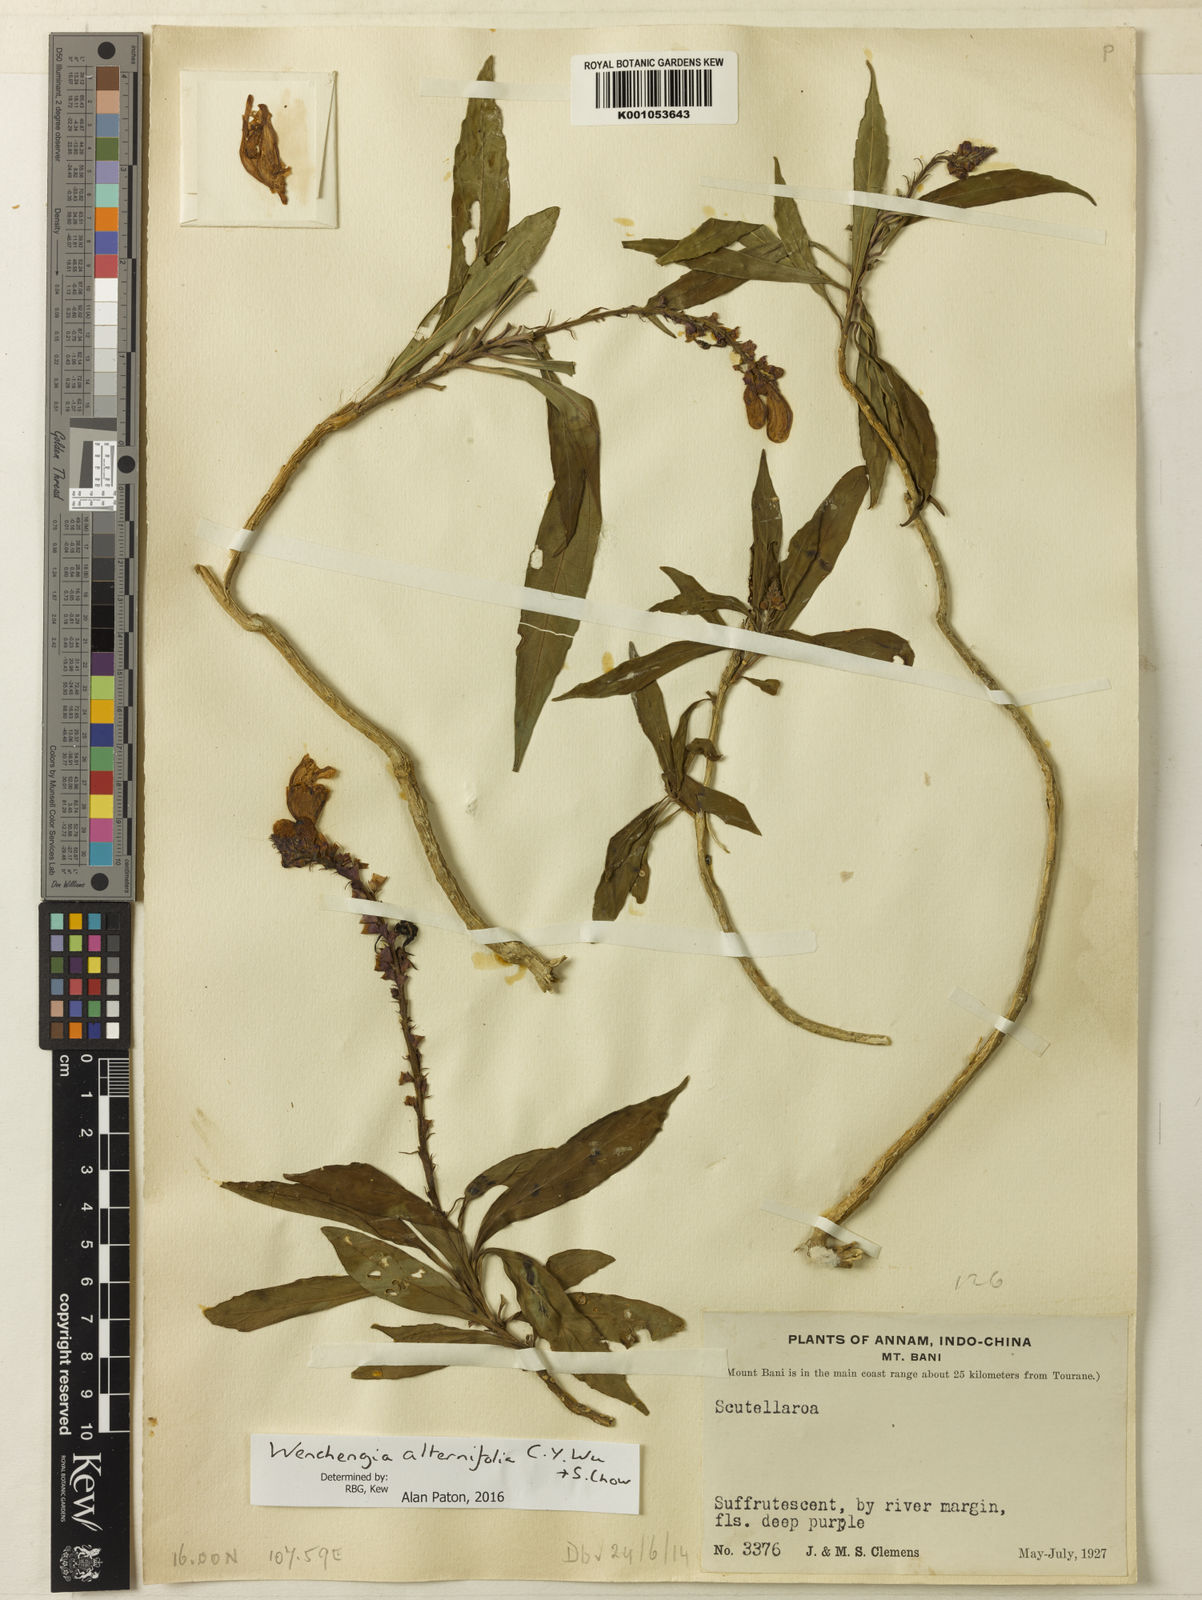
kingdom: Plantae
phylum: Tracheophyta
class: Magnoliopsida
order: Lamiales
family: Lamiaceae
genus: Wenchengia
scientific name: Wenchengia alternifolia
